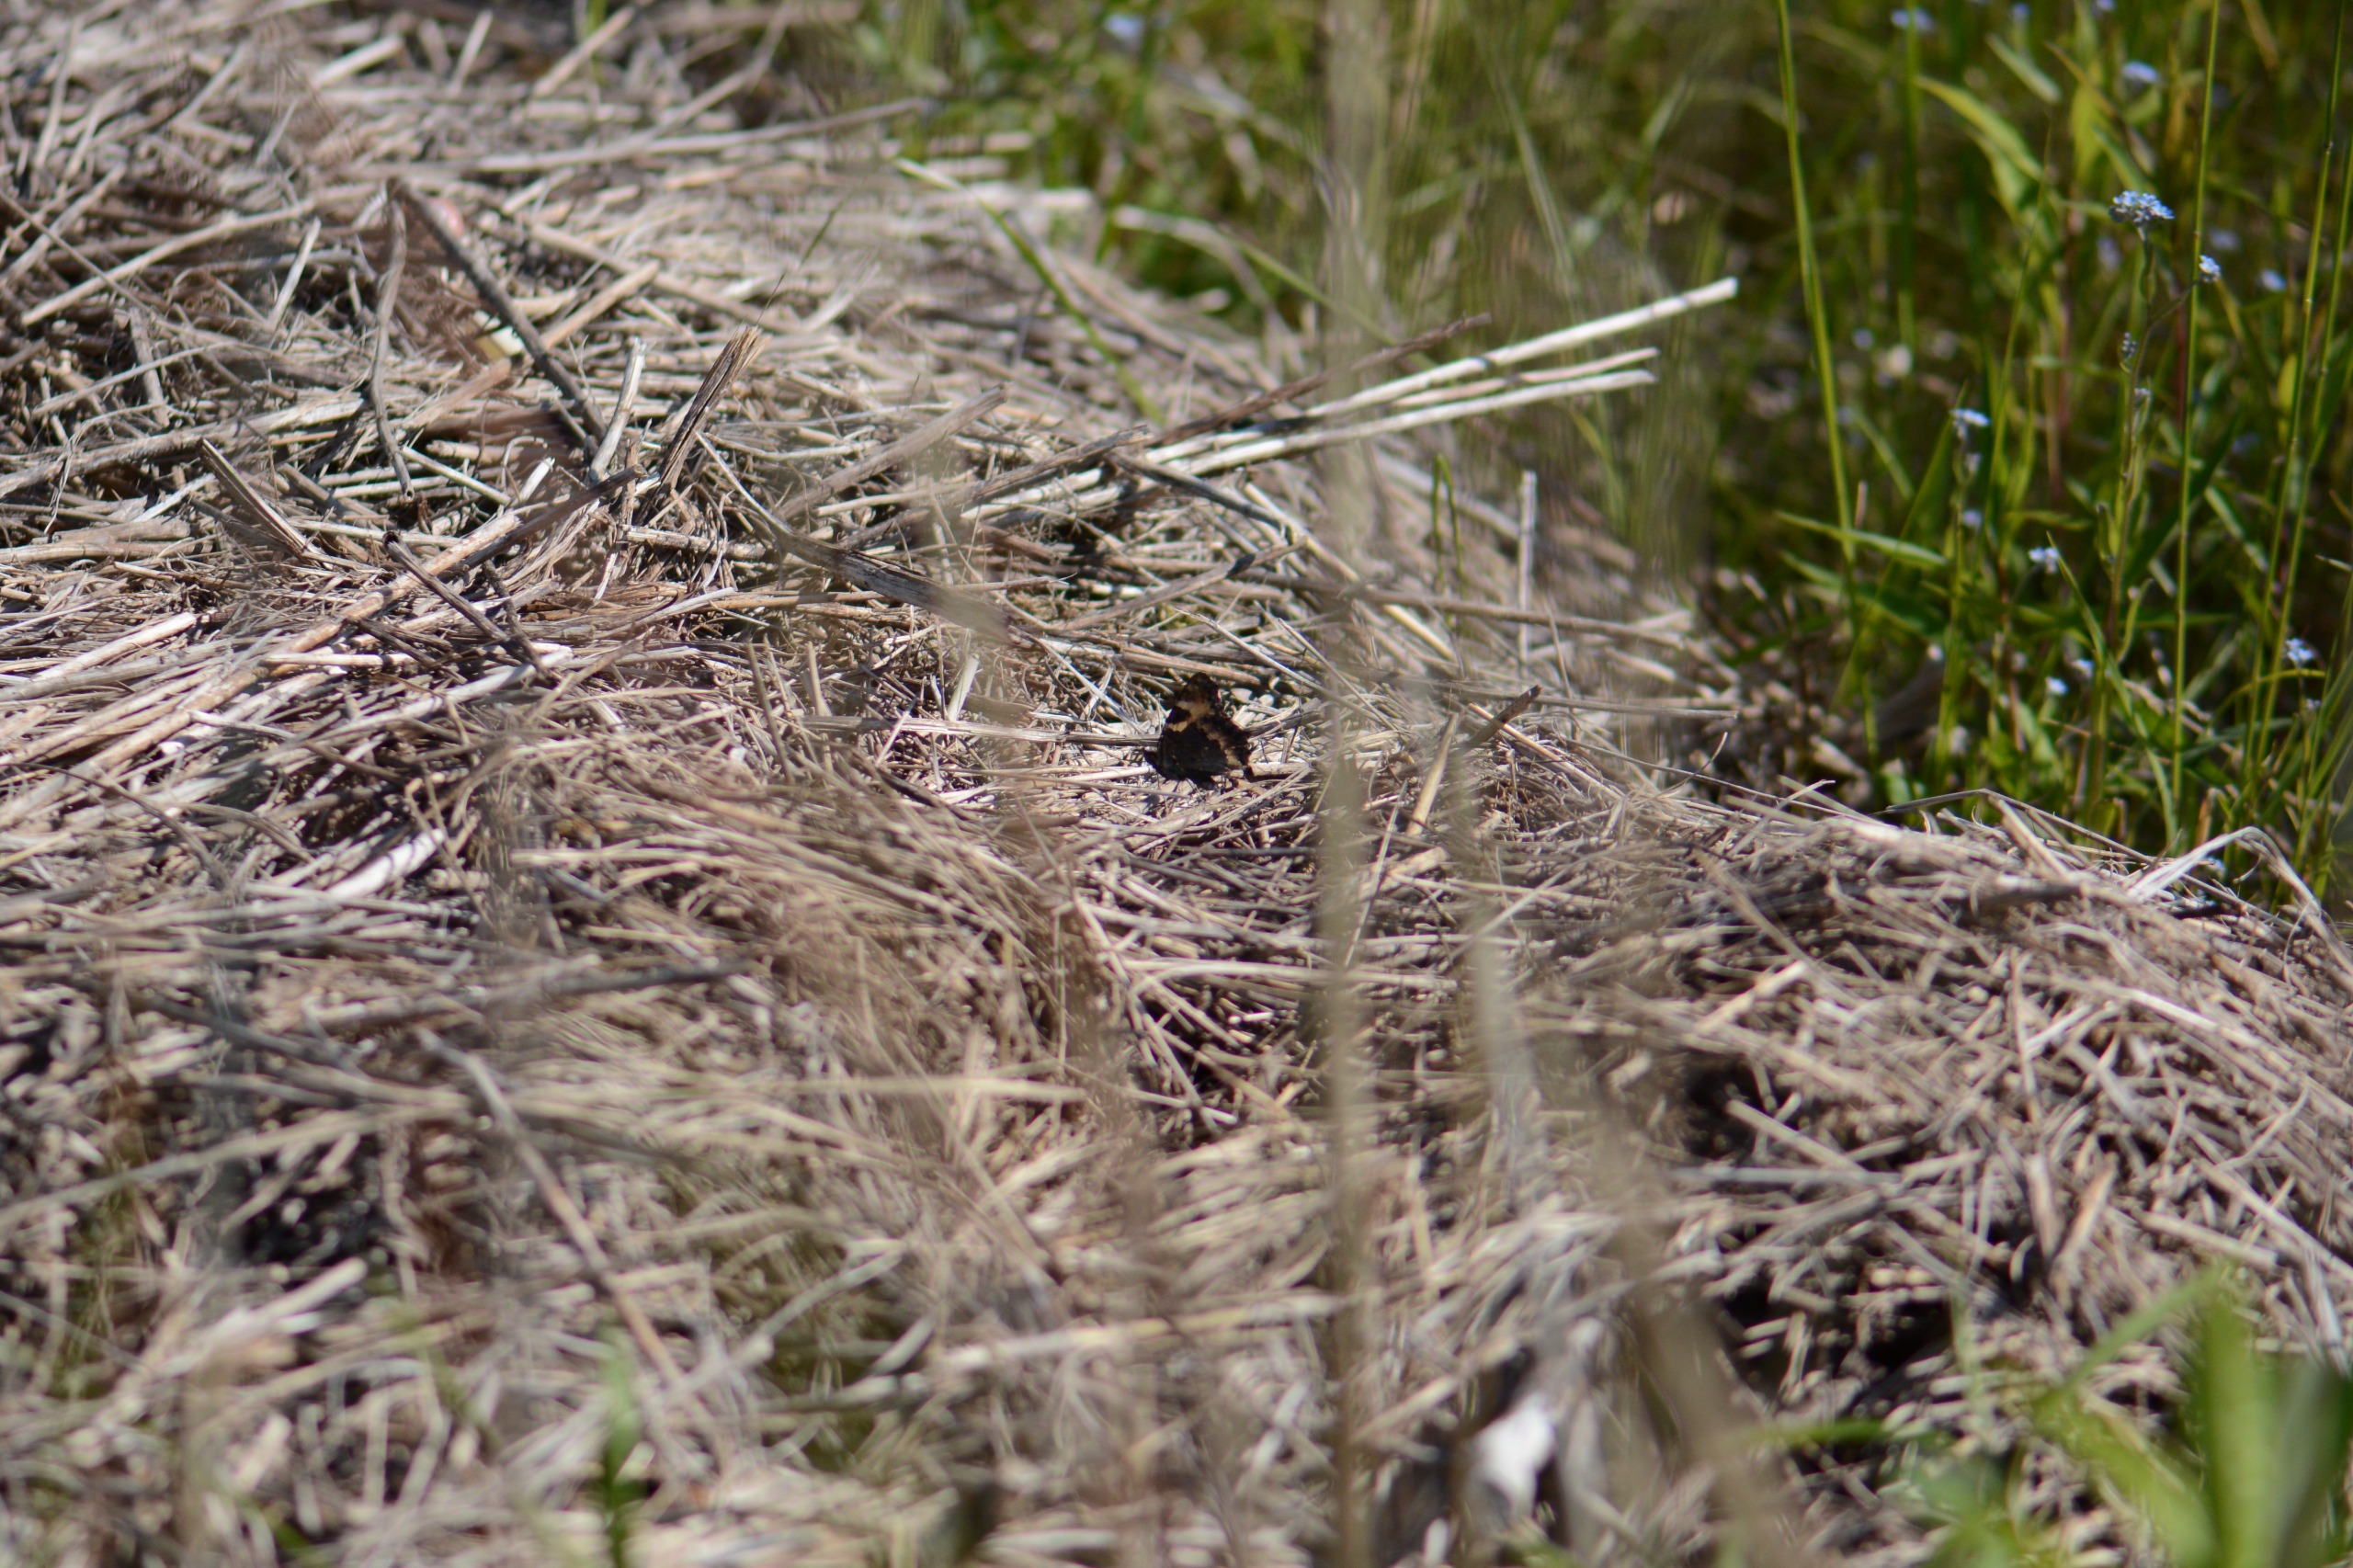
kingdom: Animalia
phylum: Arthropoda
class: Insecta
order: Lepidoptera
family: Nymphalidae
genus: Aglais
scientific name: Aglais urticae
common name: Nældens takvinge
